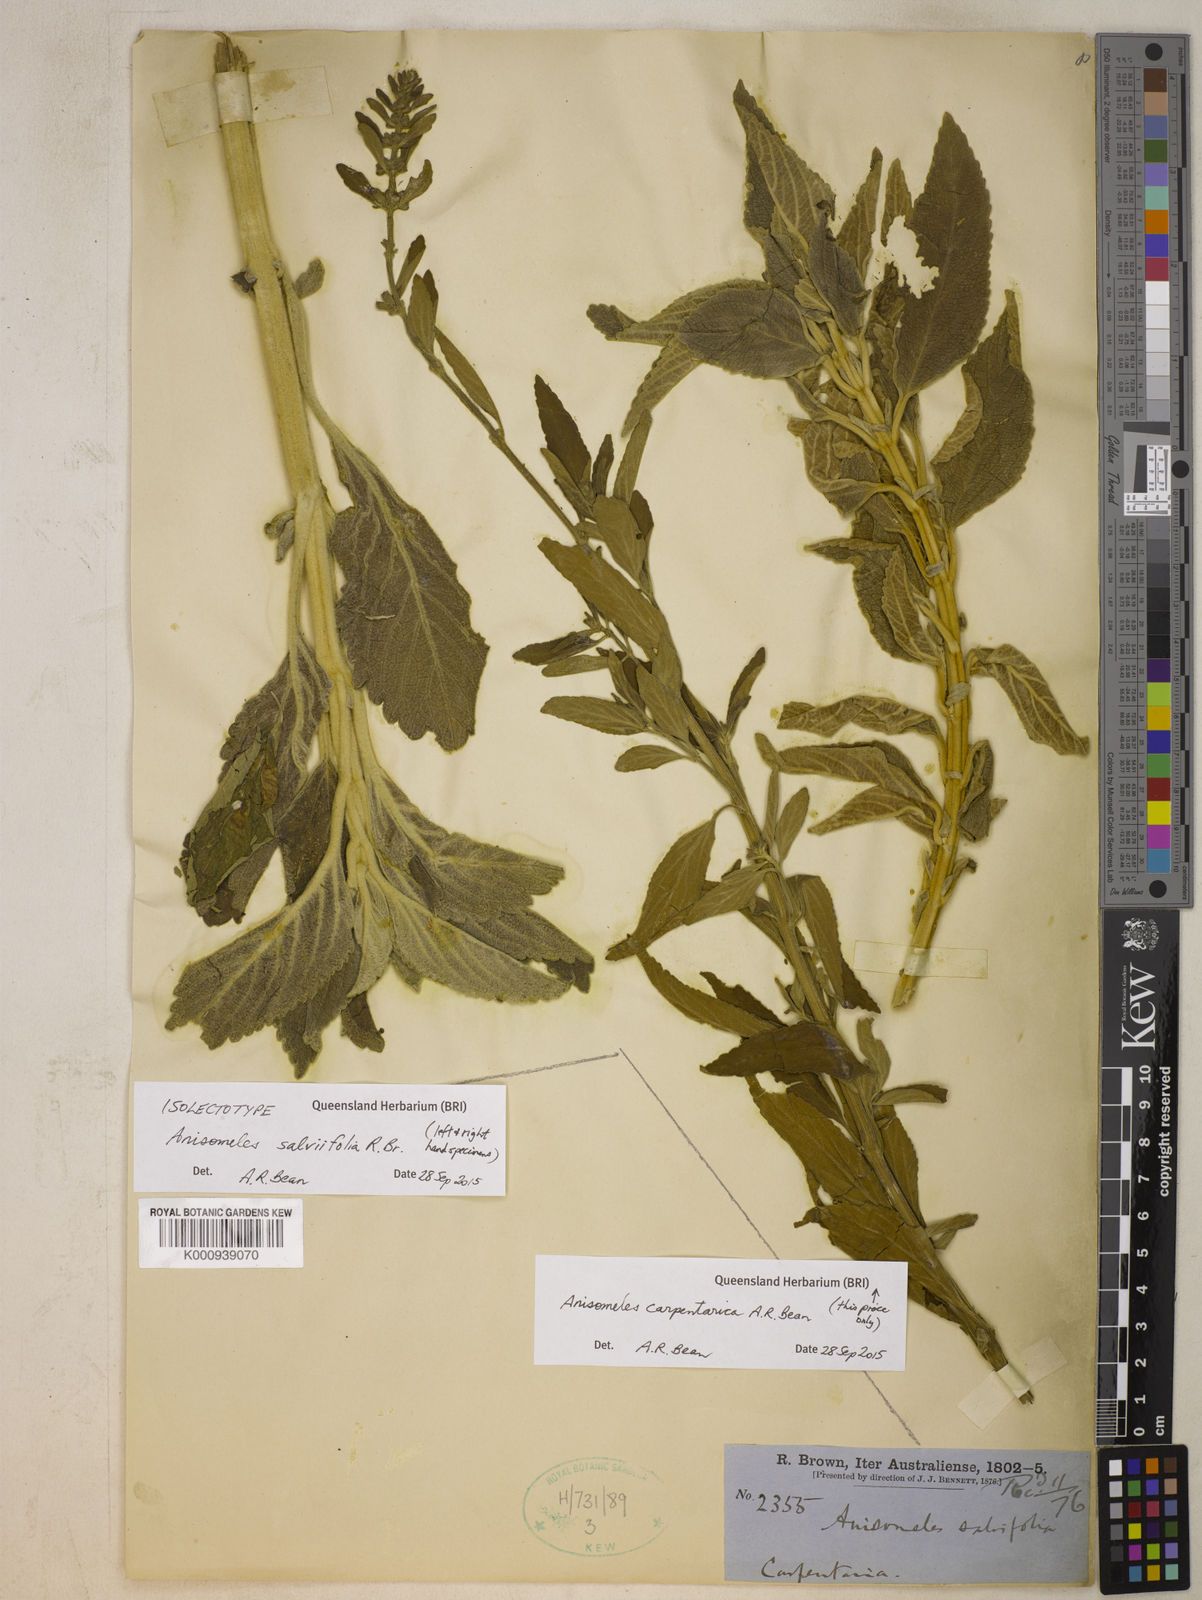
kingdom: Plantae
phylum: Tracheophyta
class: Magnoliopsida
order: Lamiales
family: Lamiaceae
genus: Anisomeles
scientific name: Anisomeles salviifolia
